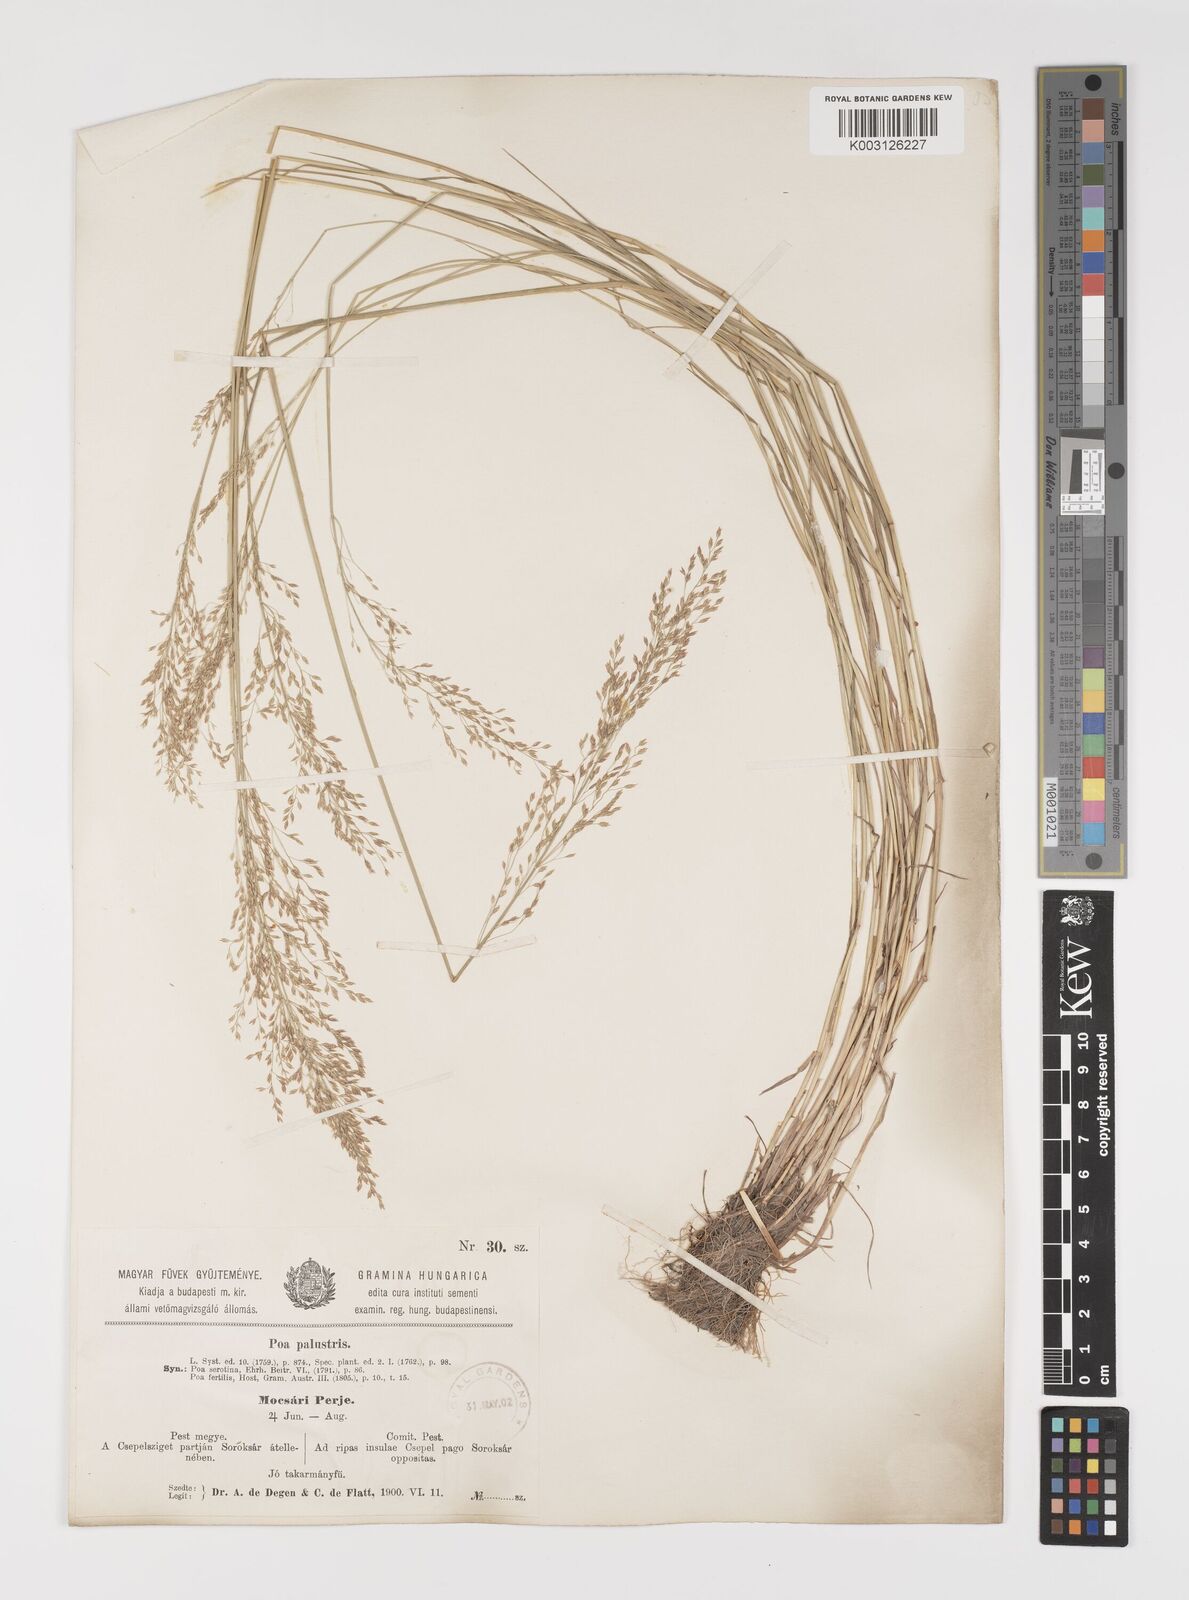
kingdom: Plantae
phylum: Tracheophyta
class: Liliopsida
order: Poales
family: Poaceae
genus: Poa
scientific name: Poa palustris
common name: Swamp meadow-grass
